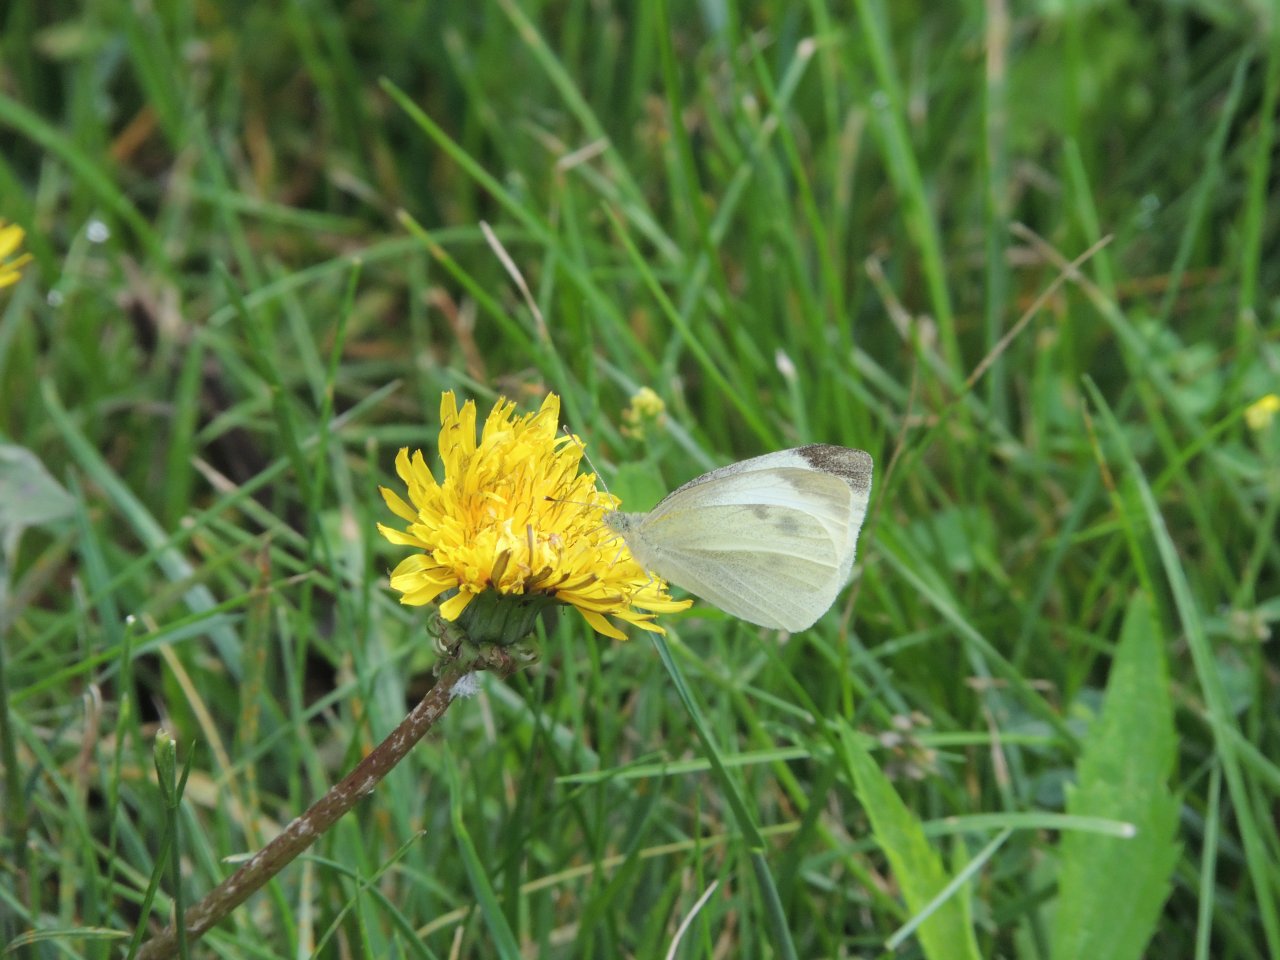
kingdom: Animalia
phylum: Arthropoda
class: Insecta
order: Lepidoptera
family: Pieridae
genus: Pieris
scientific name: Pieris rapae
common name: Cabbage White
